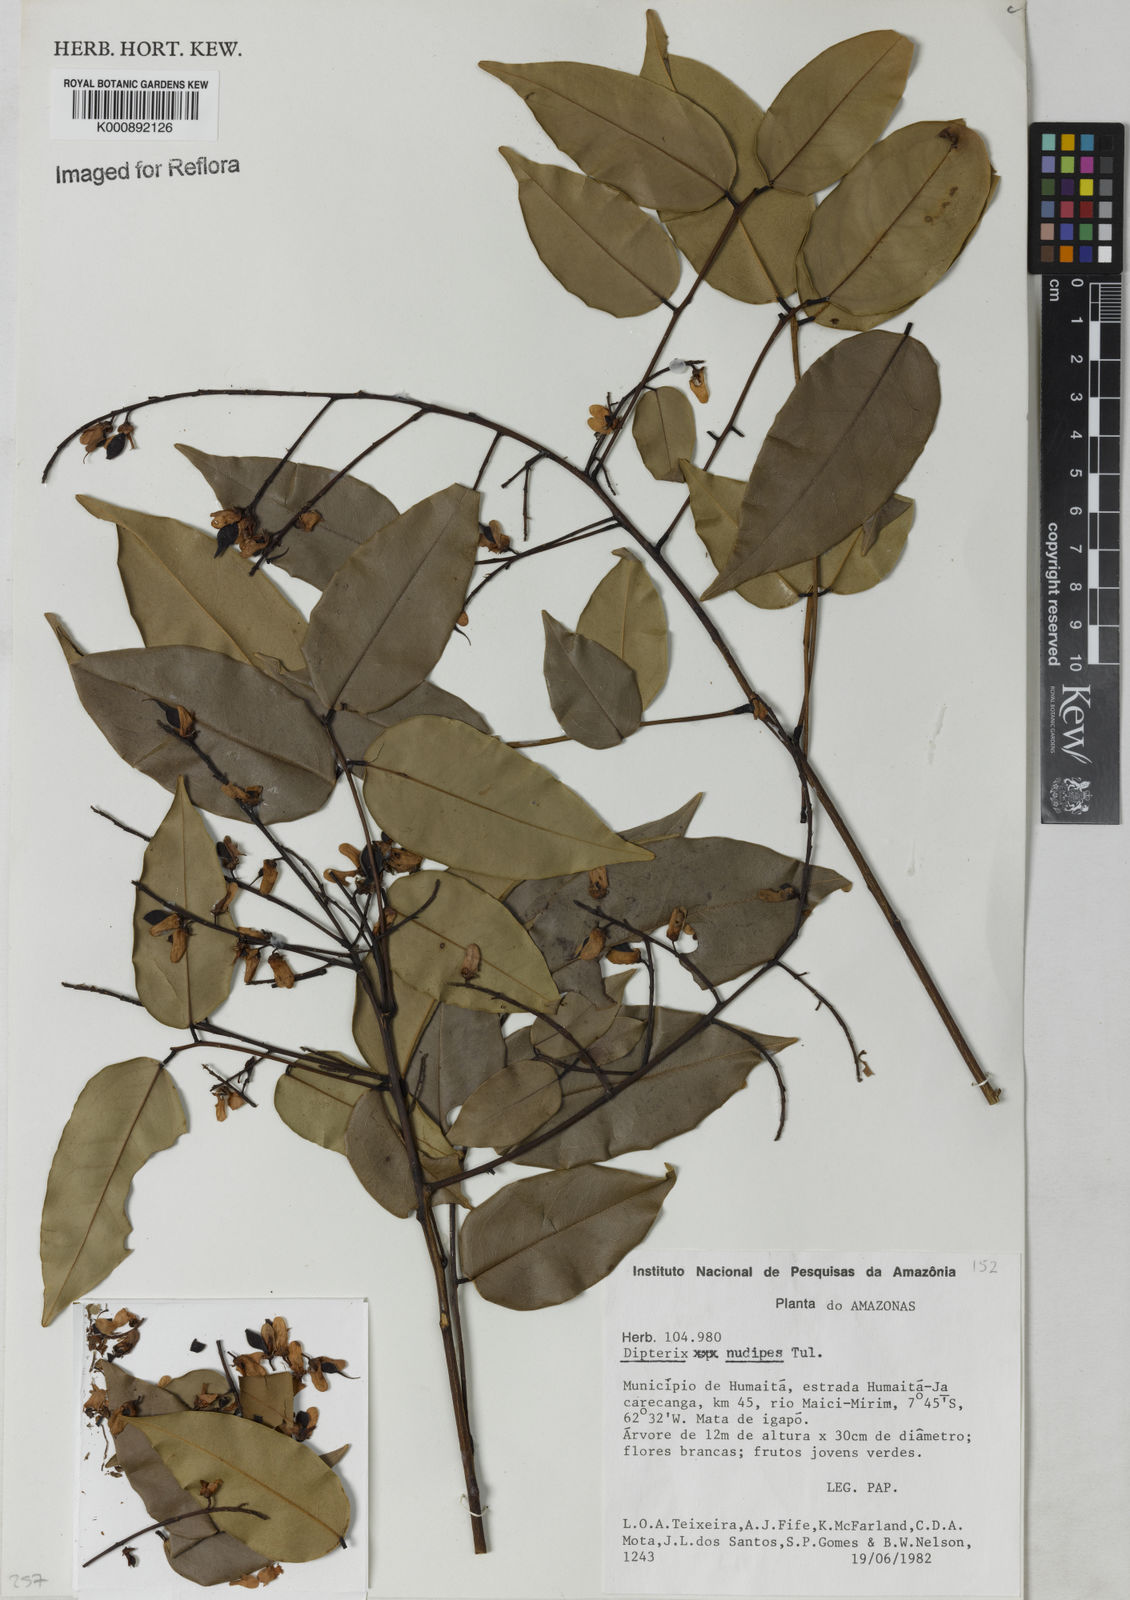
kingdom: Plantae
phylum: Tracheophyta
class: Magnoliopsida
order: Fabales
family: Fabaceae
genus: Taralea
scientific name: Taralea nudipes
